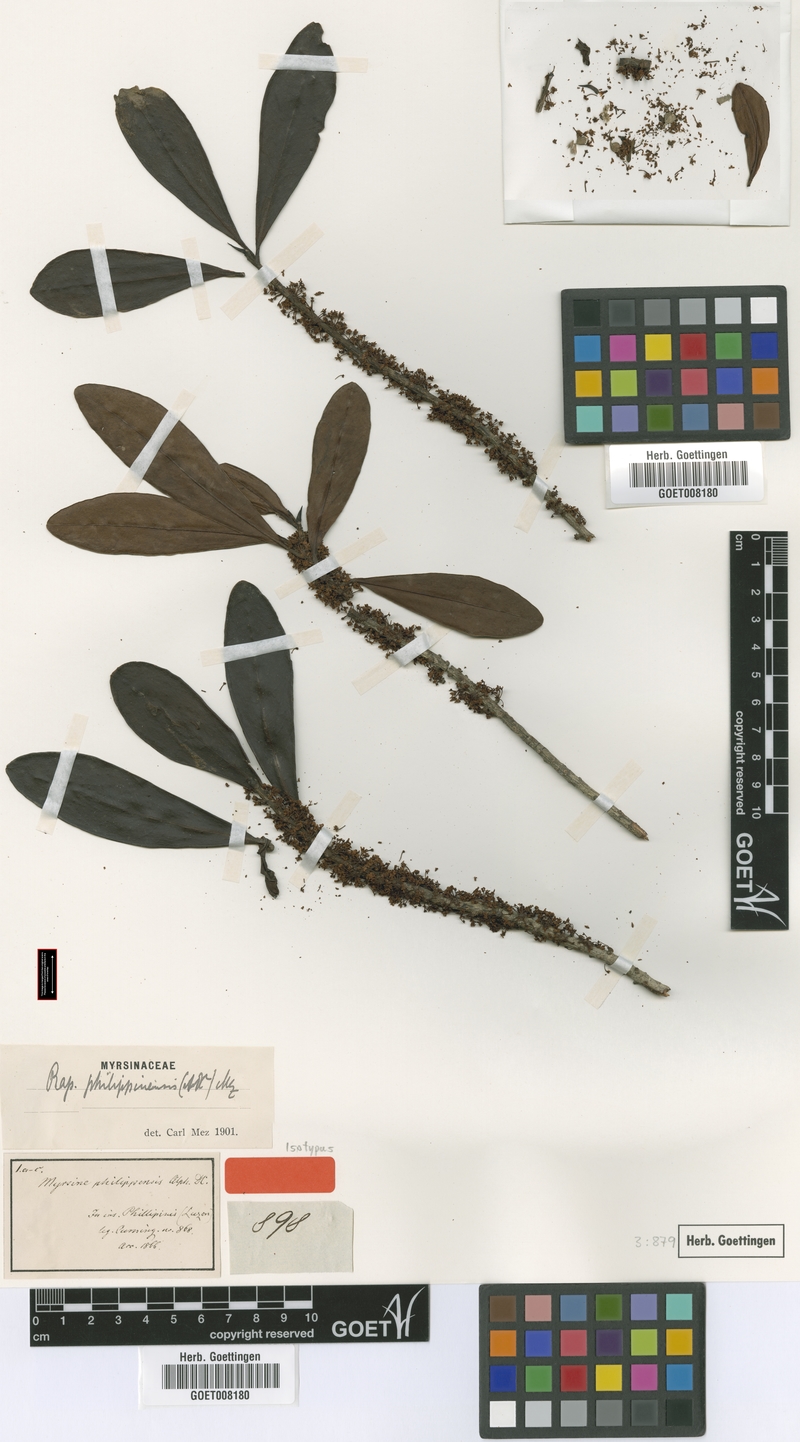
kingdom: Plantae
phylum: Tracheophyta
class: Magnoliopsida
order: Ericales
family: Primulaceae
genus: Myrsine
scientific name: Myrsine seguinii
